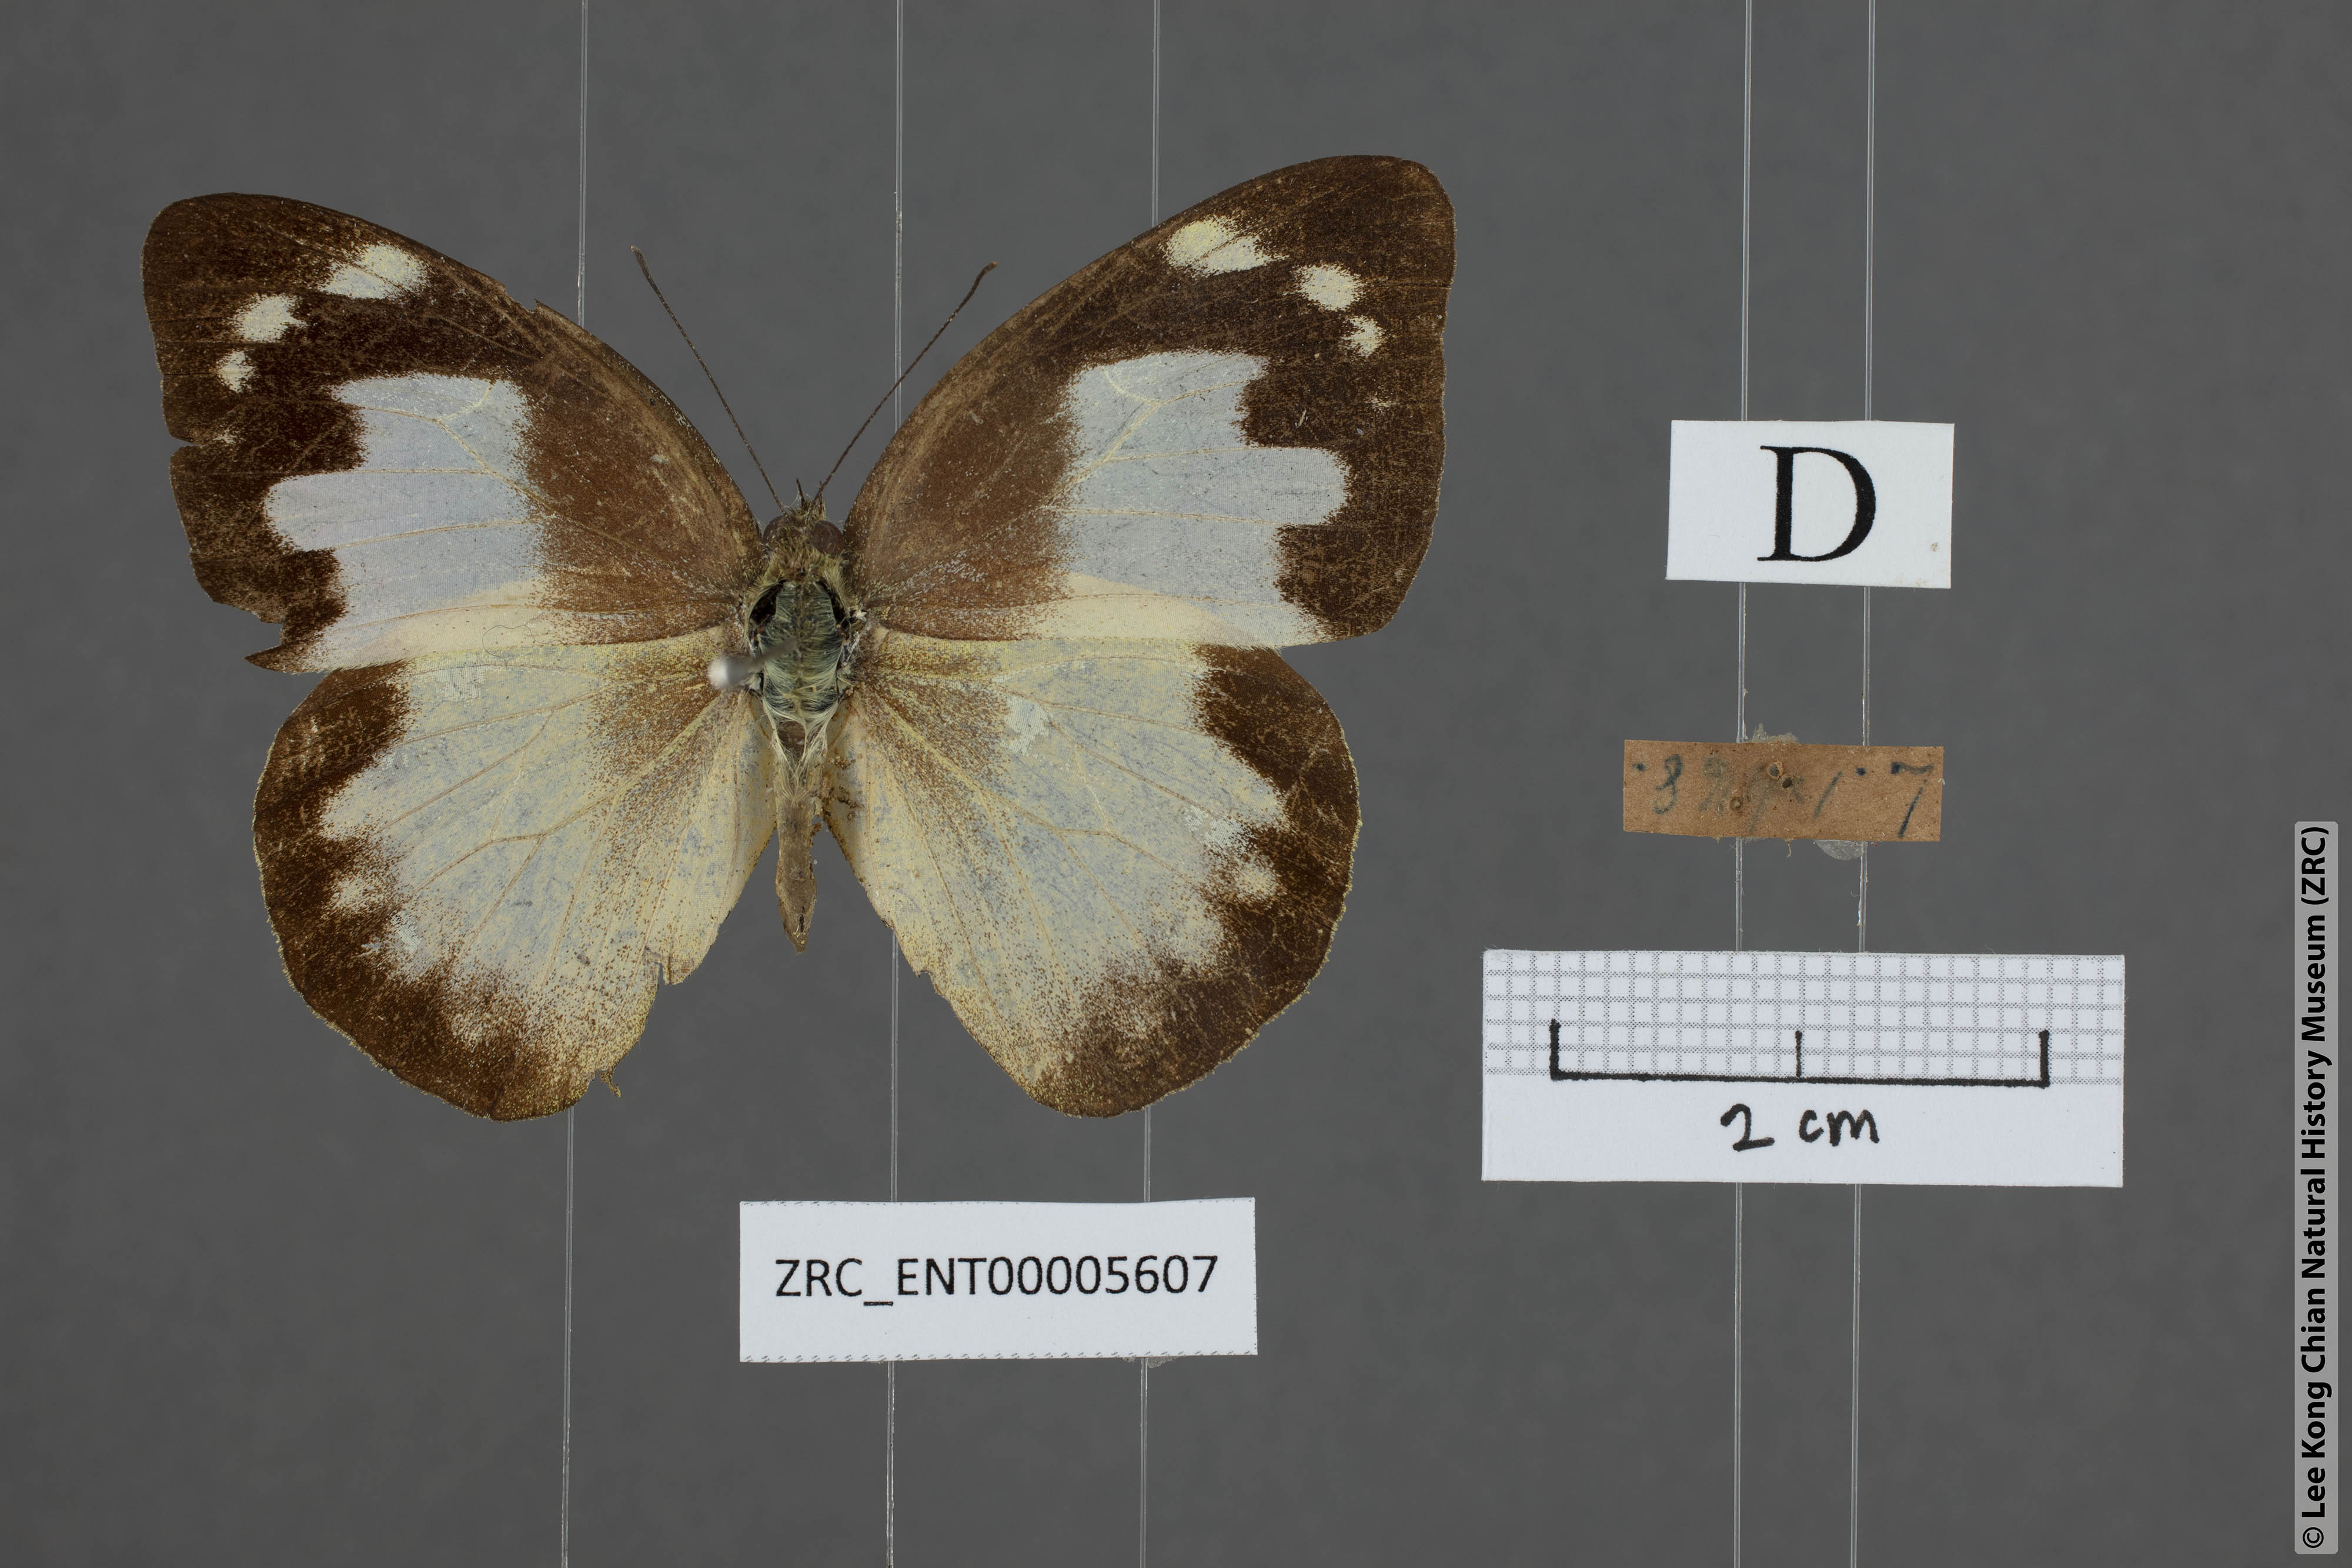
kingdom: Animalia
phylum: Arthropoda
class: Insecta
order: Lepidoptera
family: Pieridae
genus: Appias
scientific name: Appias paulina
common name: Ceylon lesser albatross
